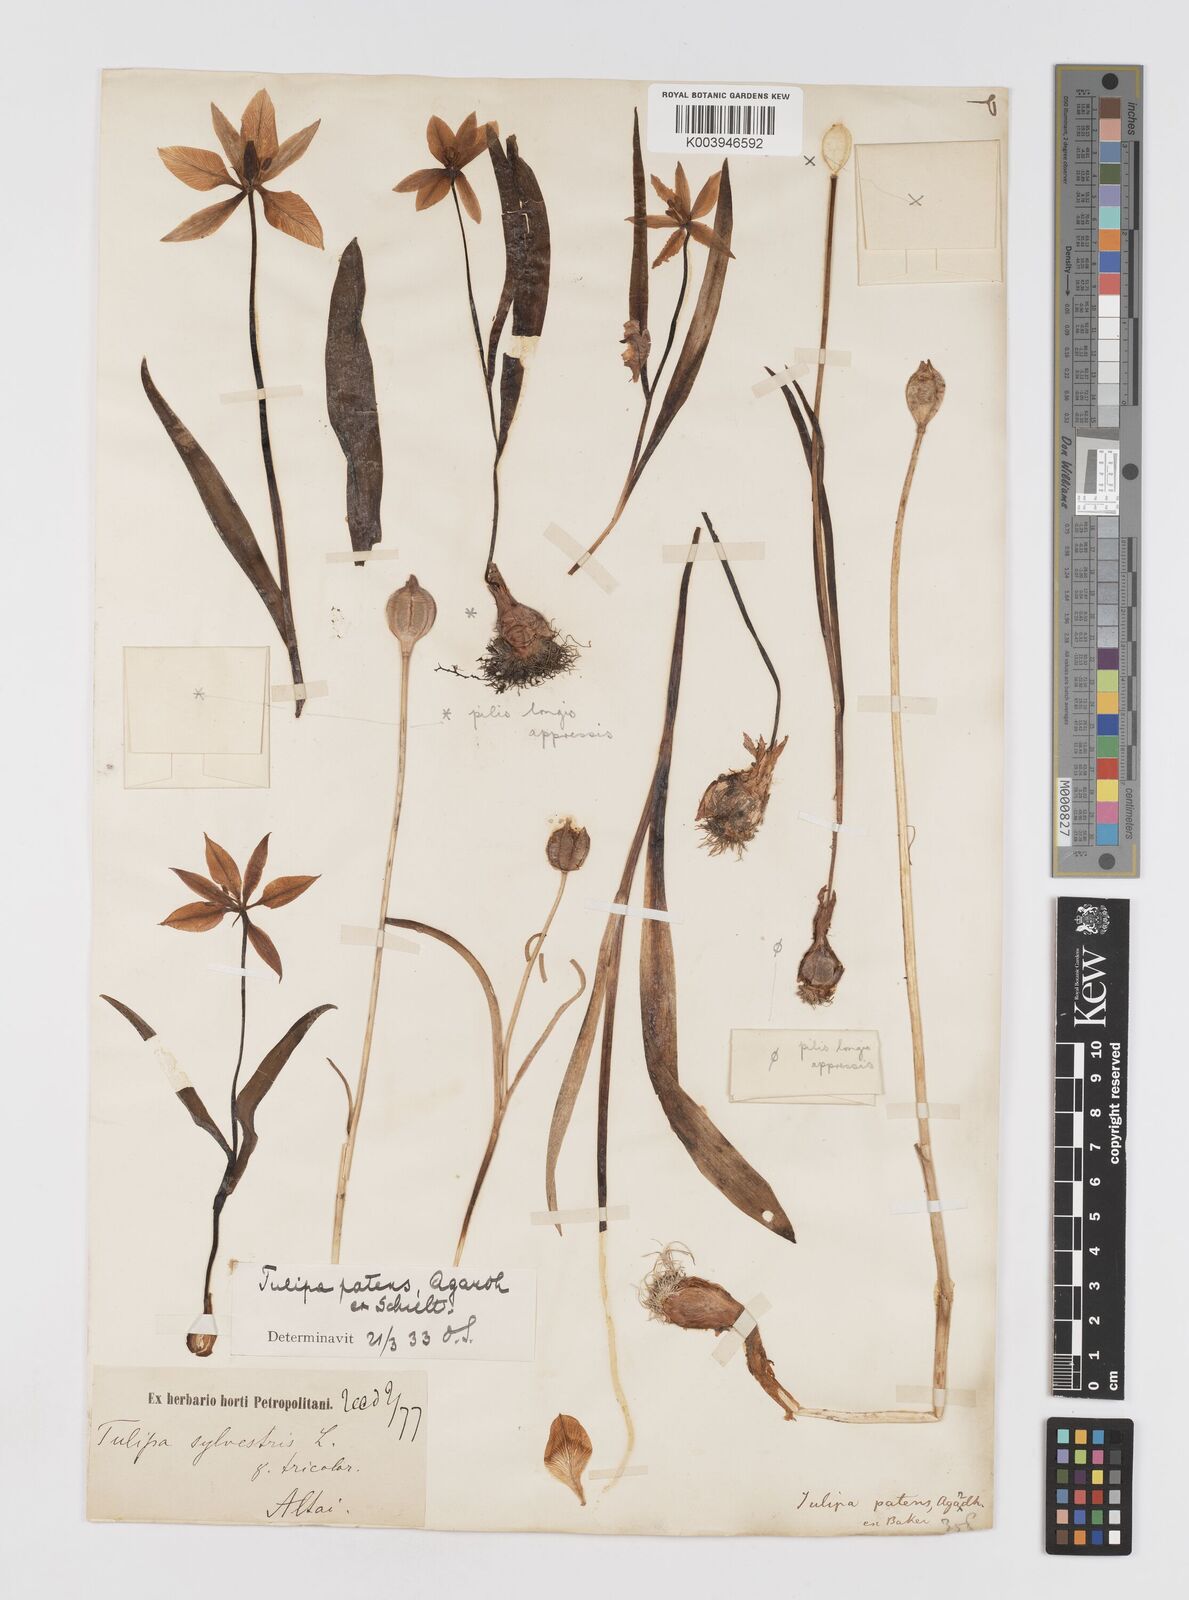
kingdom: Plantae
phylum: Tracheophyta
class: Liliopsida
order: Liliales
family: Liliaceae
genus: Tulipa
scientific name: Tulipa
